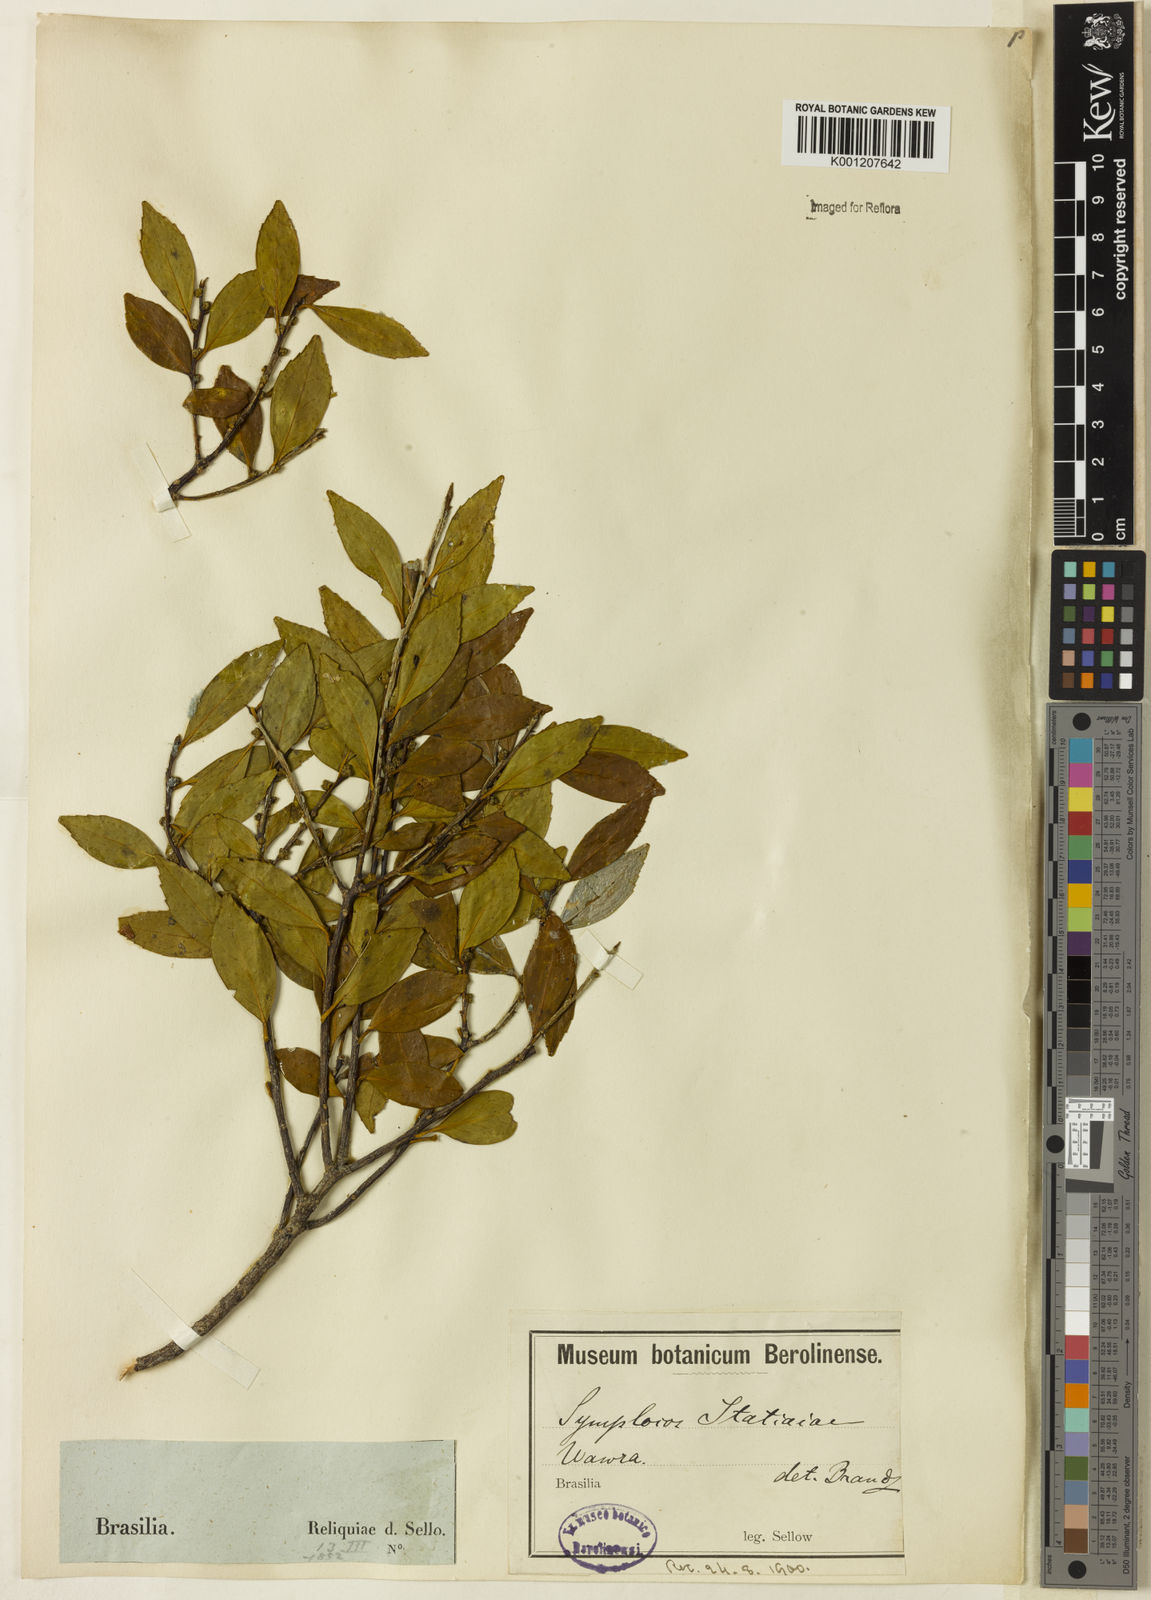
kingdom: Plantae
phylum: Tracheophyta
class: Magnoliopsida
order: Ericales
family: Symplocaceae
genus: Symplocos
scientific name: Symplocos itatiaiae
